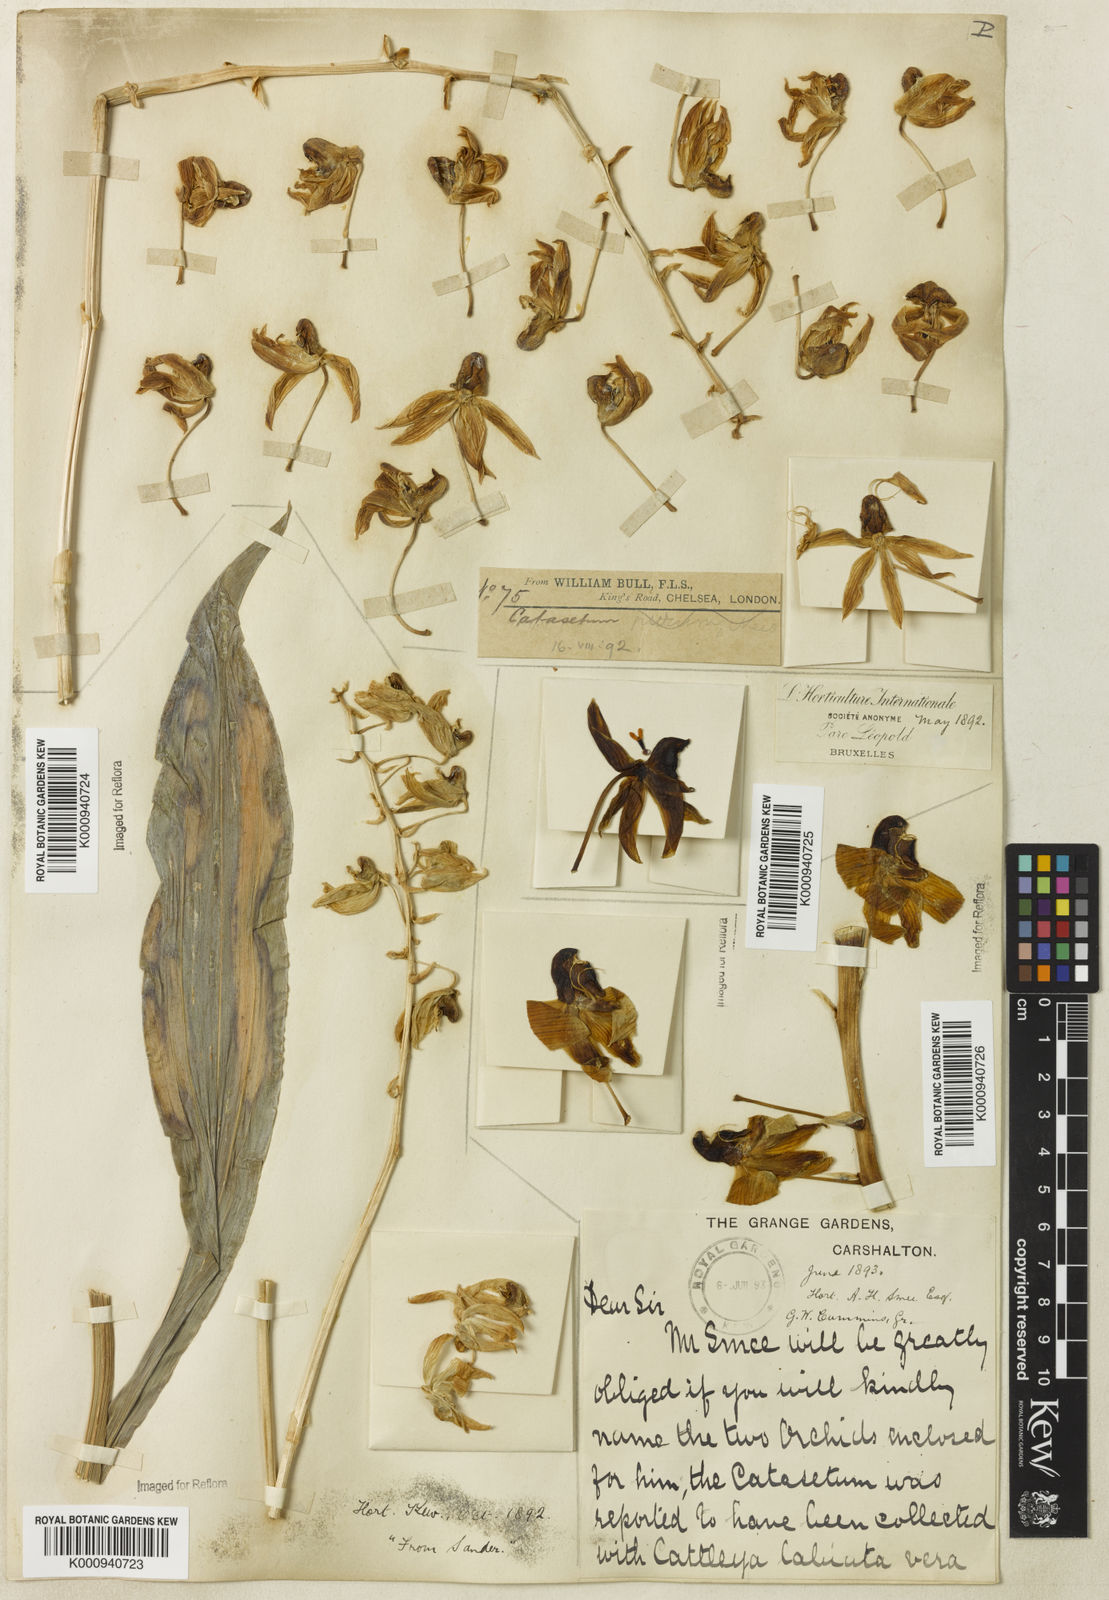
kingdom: Plantae
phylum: Tracheophyta
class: Liliopsida
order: Asparagales
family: Orchidaceae
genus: Catasetum
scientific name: Catasetum uncatum
